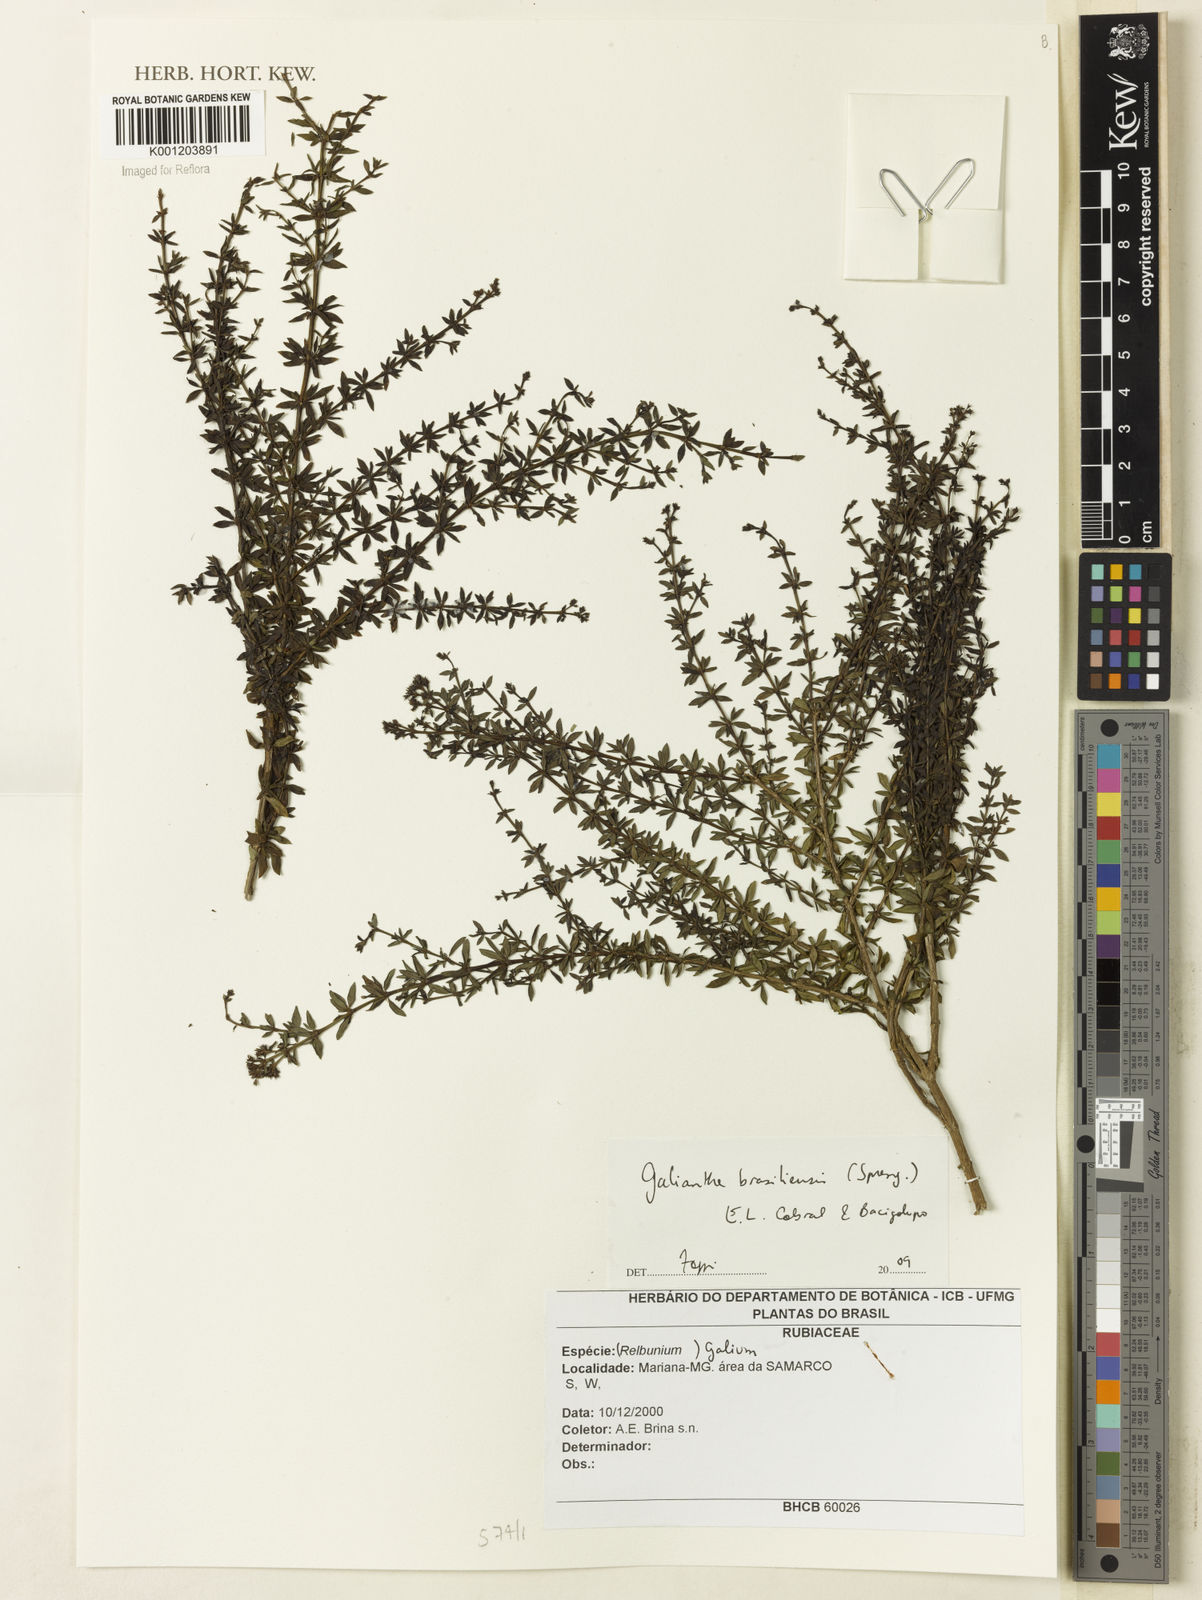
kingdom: Plantae
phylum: Tracheophyta
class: Magnoliopsida
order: Gentianales
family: Rubiaceae
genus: Galianthe
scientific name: Galianthe brasiliensis
